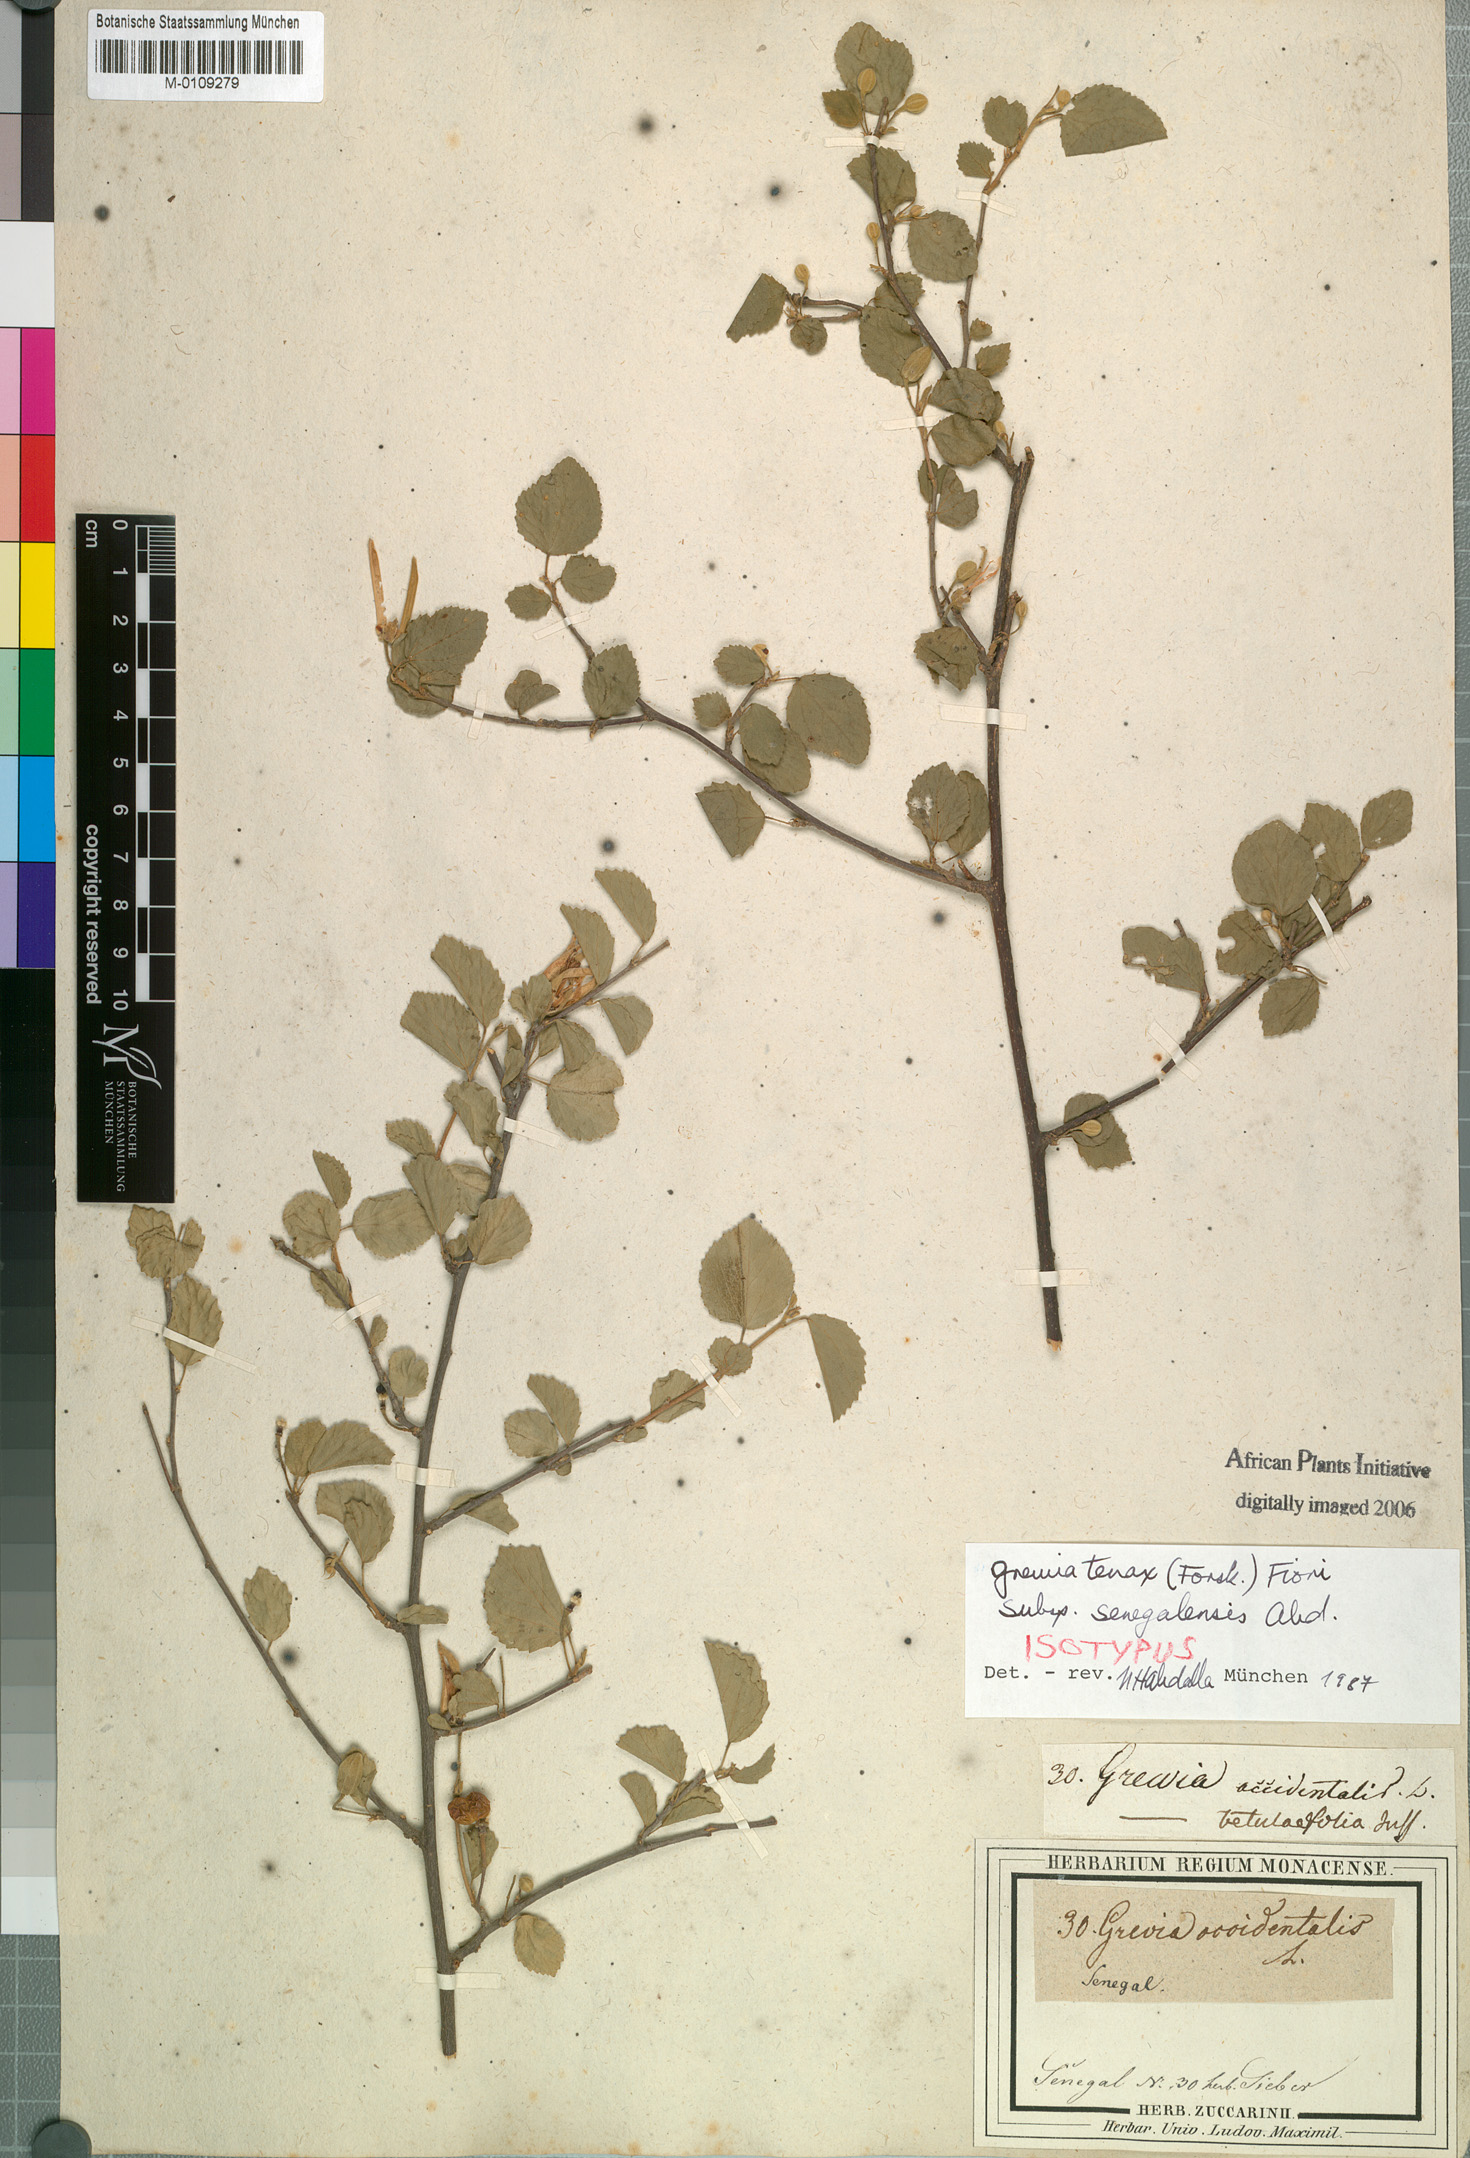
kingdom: Plantae
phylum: Tracheophyta
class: Magnoliopsida
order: Malvales
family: Malvaceae
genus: Grewia
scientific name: Grewia tenax
